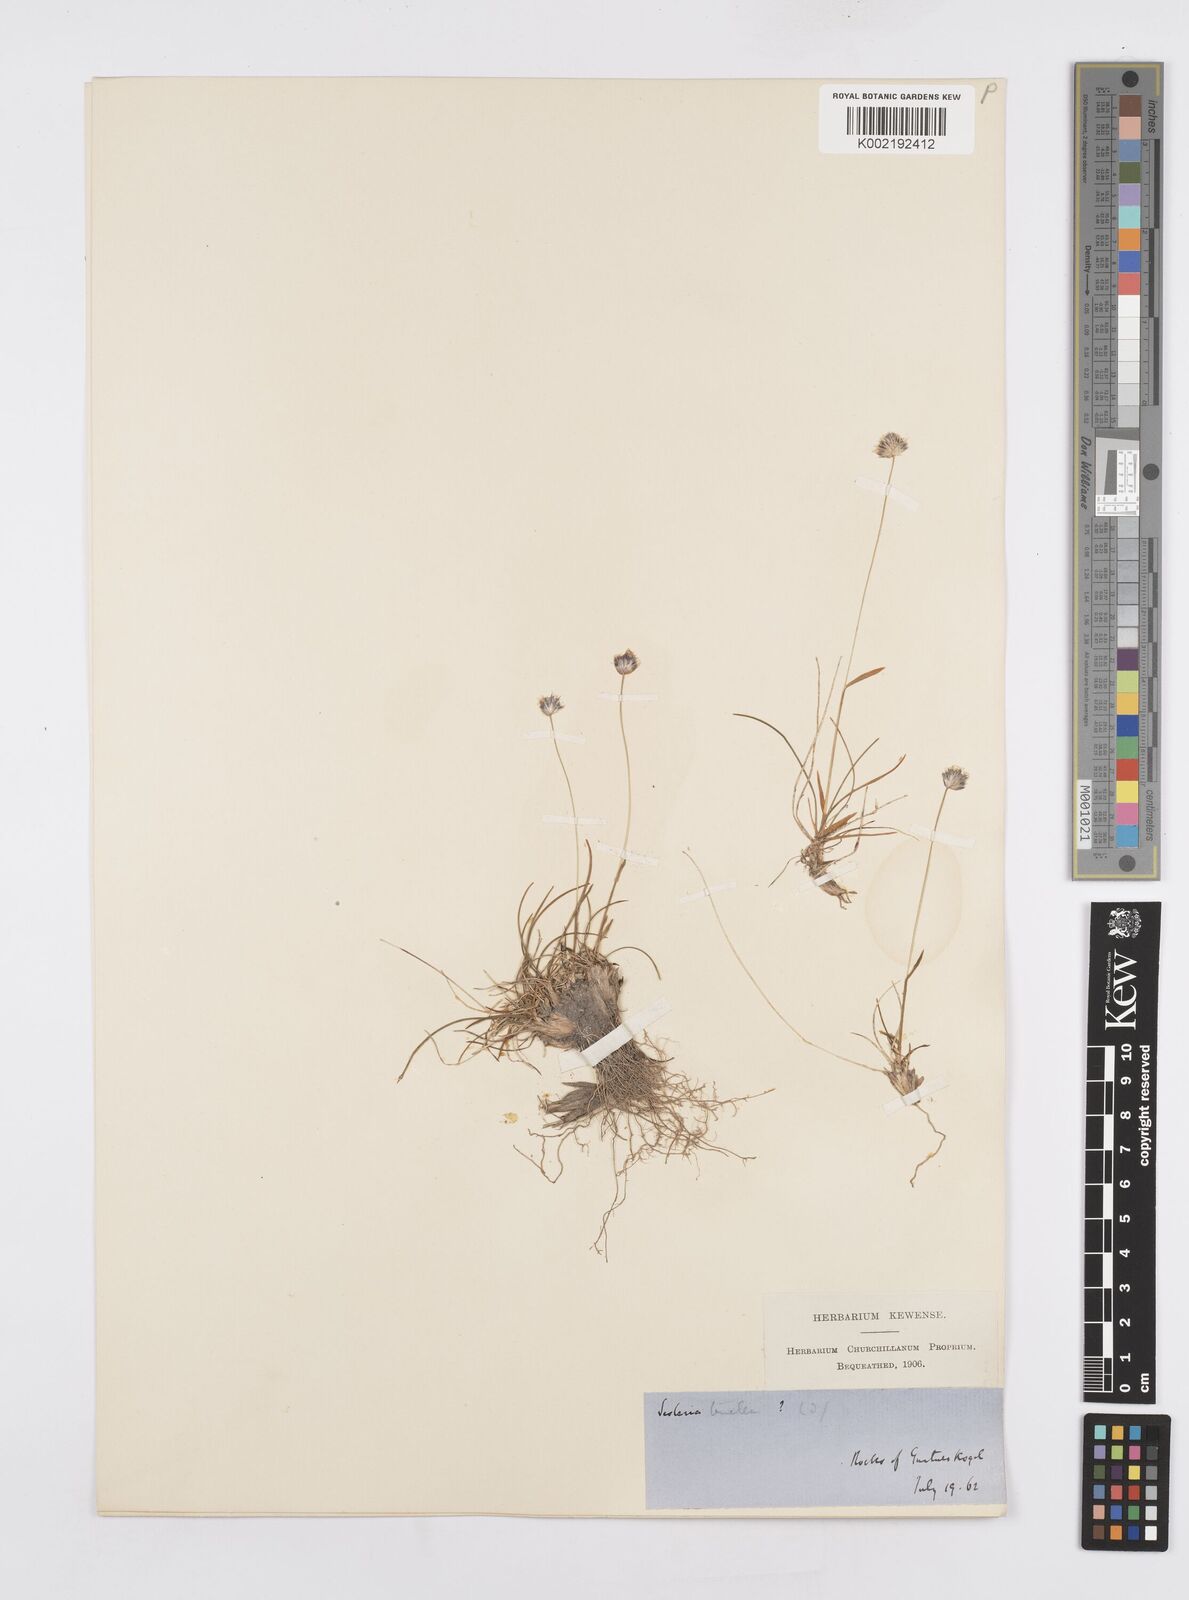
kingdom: Plantae
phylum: Tracheophyta
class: Liliopsida
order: Poales
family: Poaceae
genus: Psilathera
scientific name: Psilathera ovata
